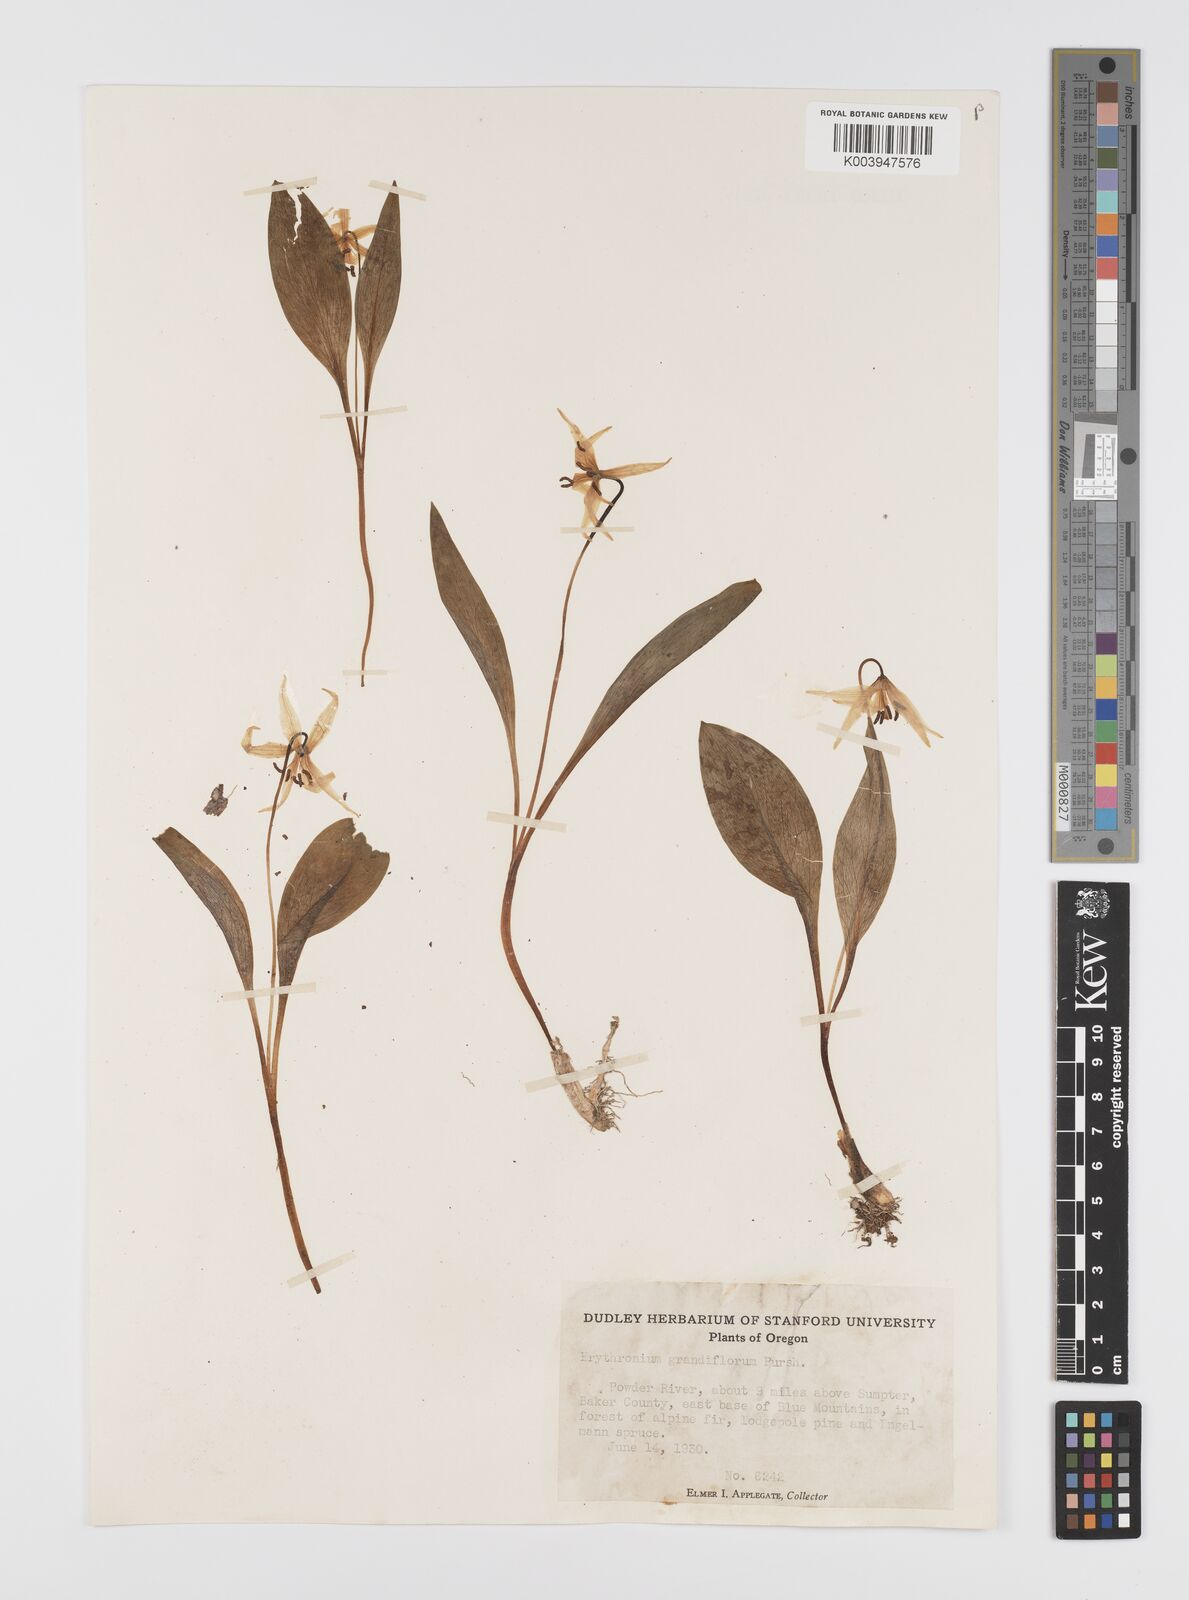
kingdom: Plantae
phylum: Tracheophyta
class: Liliopsida
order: Liliales
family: Liliaceae
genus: Erythronium
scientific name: Erythronium grandiflorum
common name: Avalanche-lily
